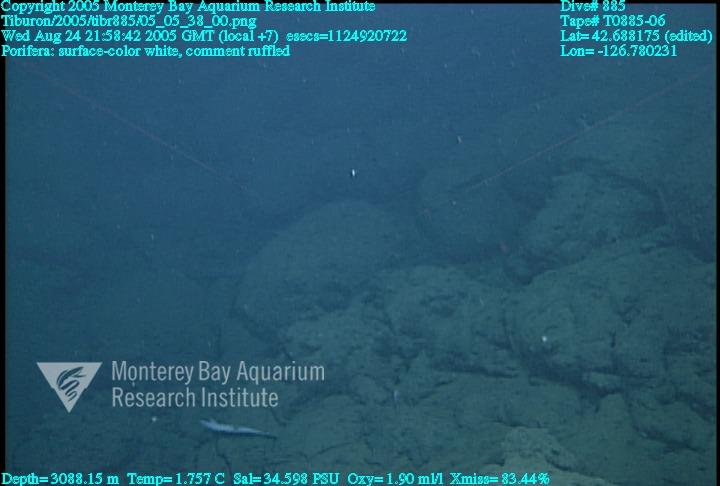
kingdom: Animalia
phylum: Porifera
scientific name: Porifera
